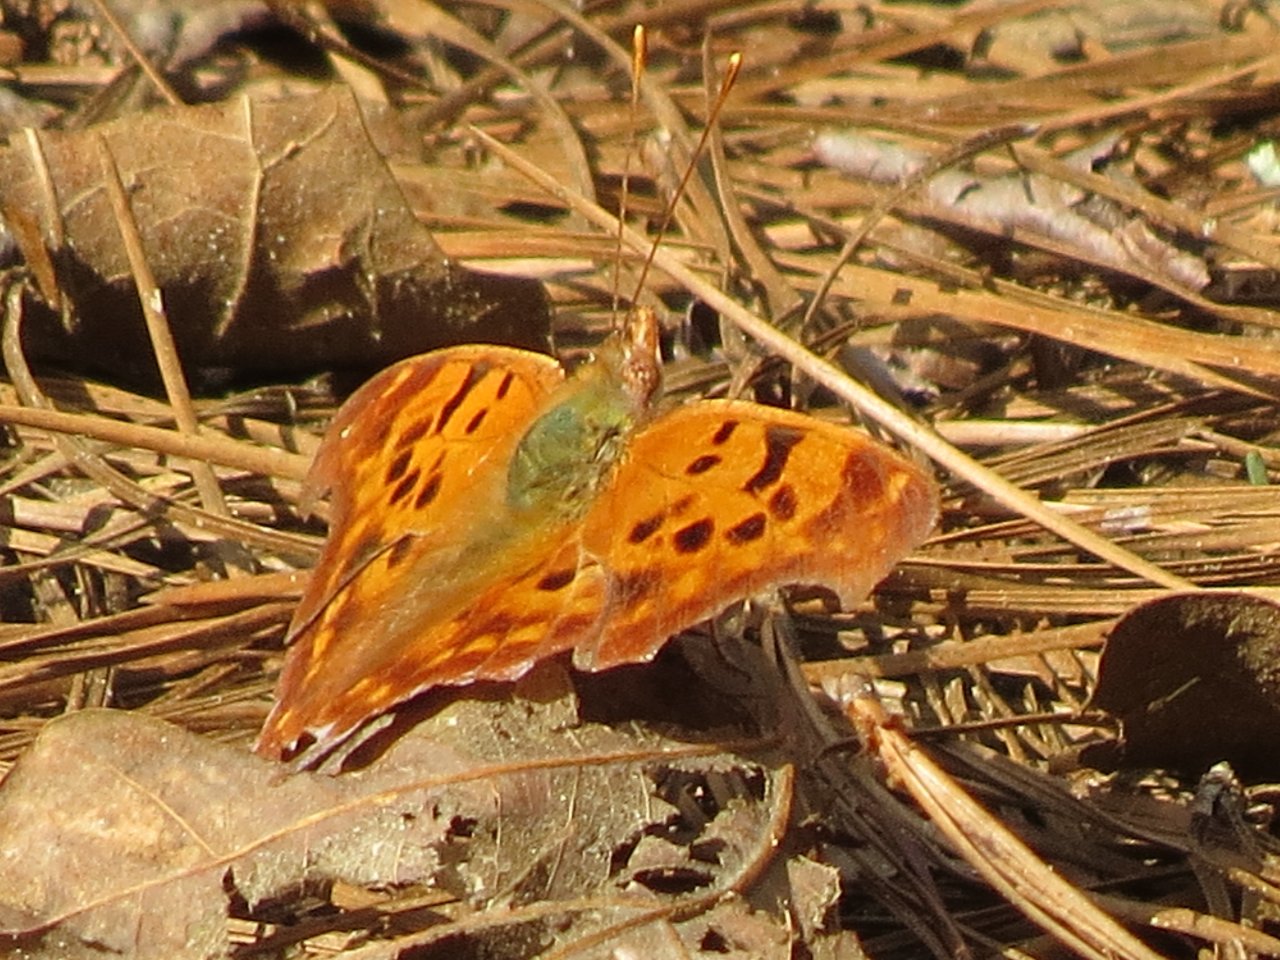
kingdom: Animalia
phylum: Arthropoda
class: Insecta
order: Lepidoptera
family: Nymphalidae
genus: Polygonia
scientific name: Polygonia interrogationis
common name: Question Mark
